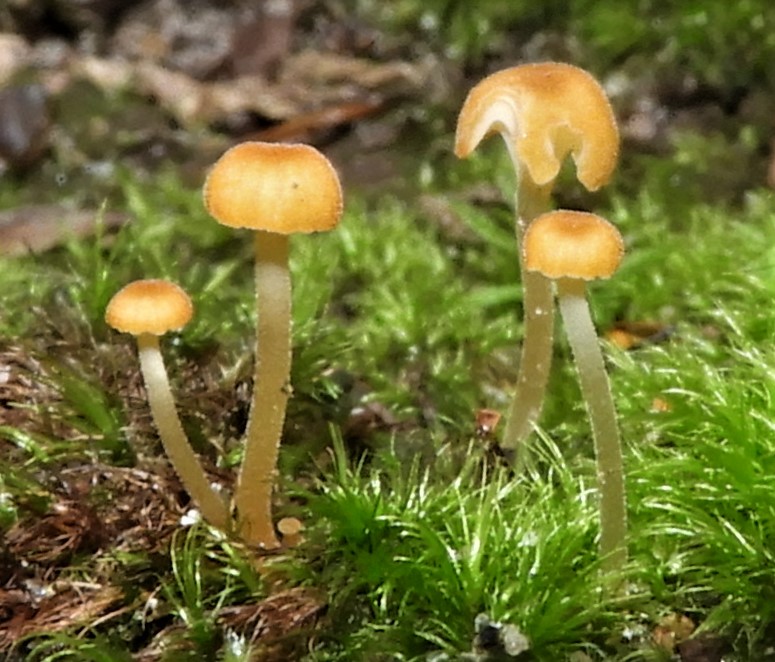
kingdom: Fungi
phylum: Basidiomycota
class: Agaricomycetes
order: Hymenochaetales
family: Rickenellaceae
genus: Rickenella
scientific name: Rickenella fibula
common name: orange mosnavlehat
